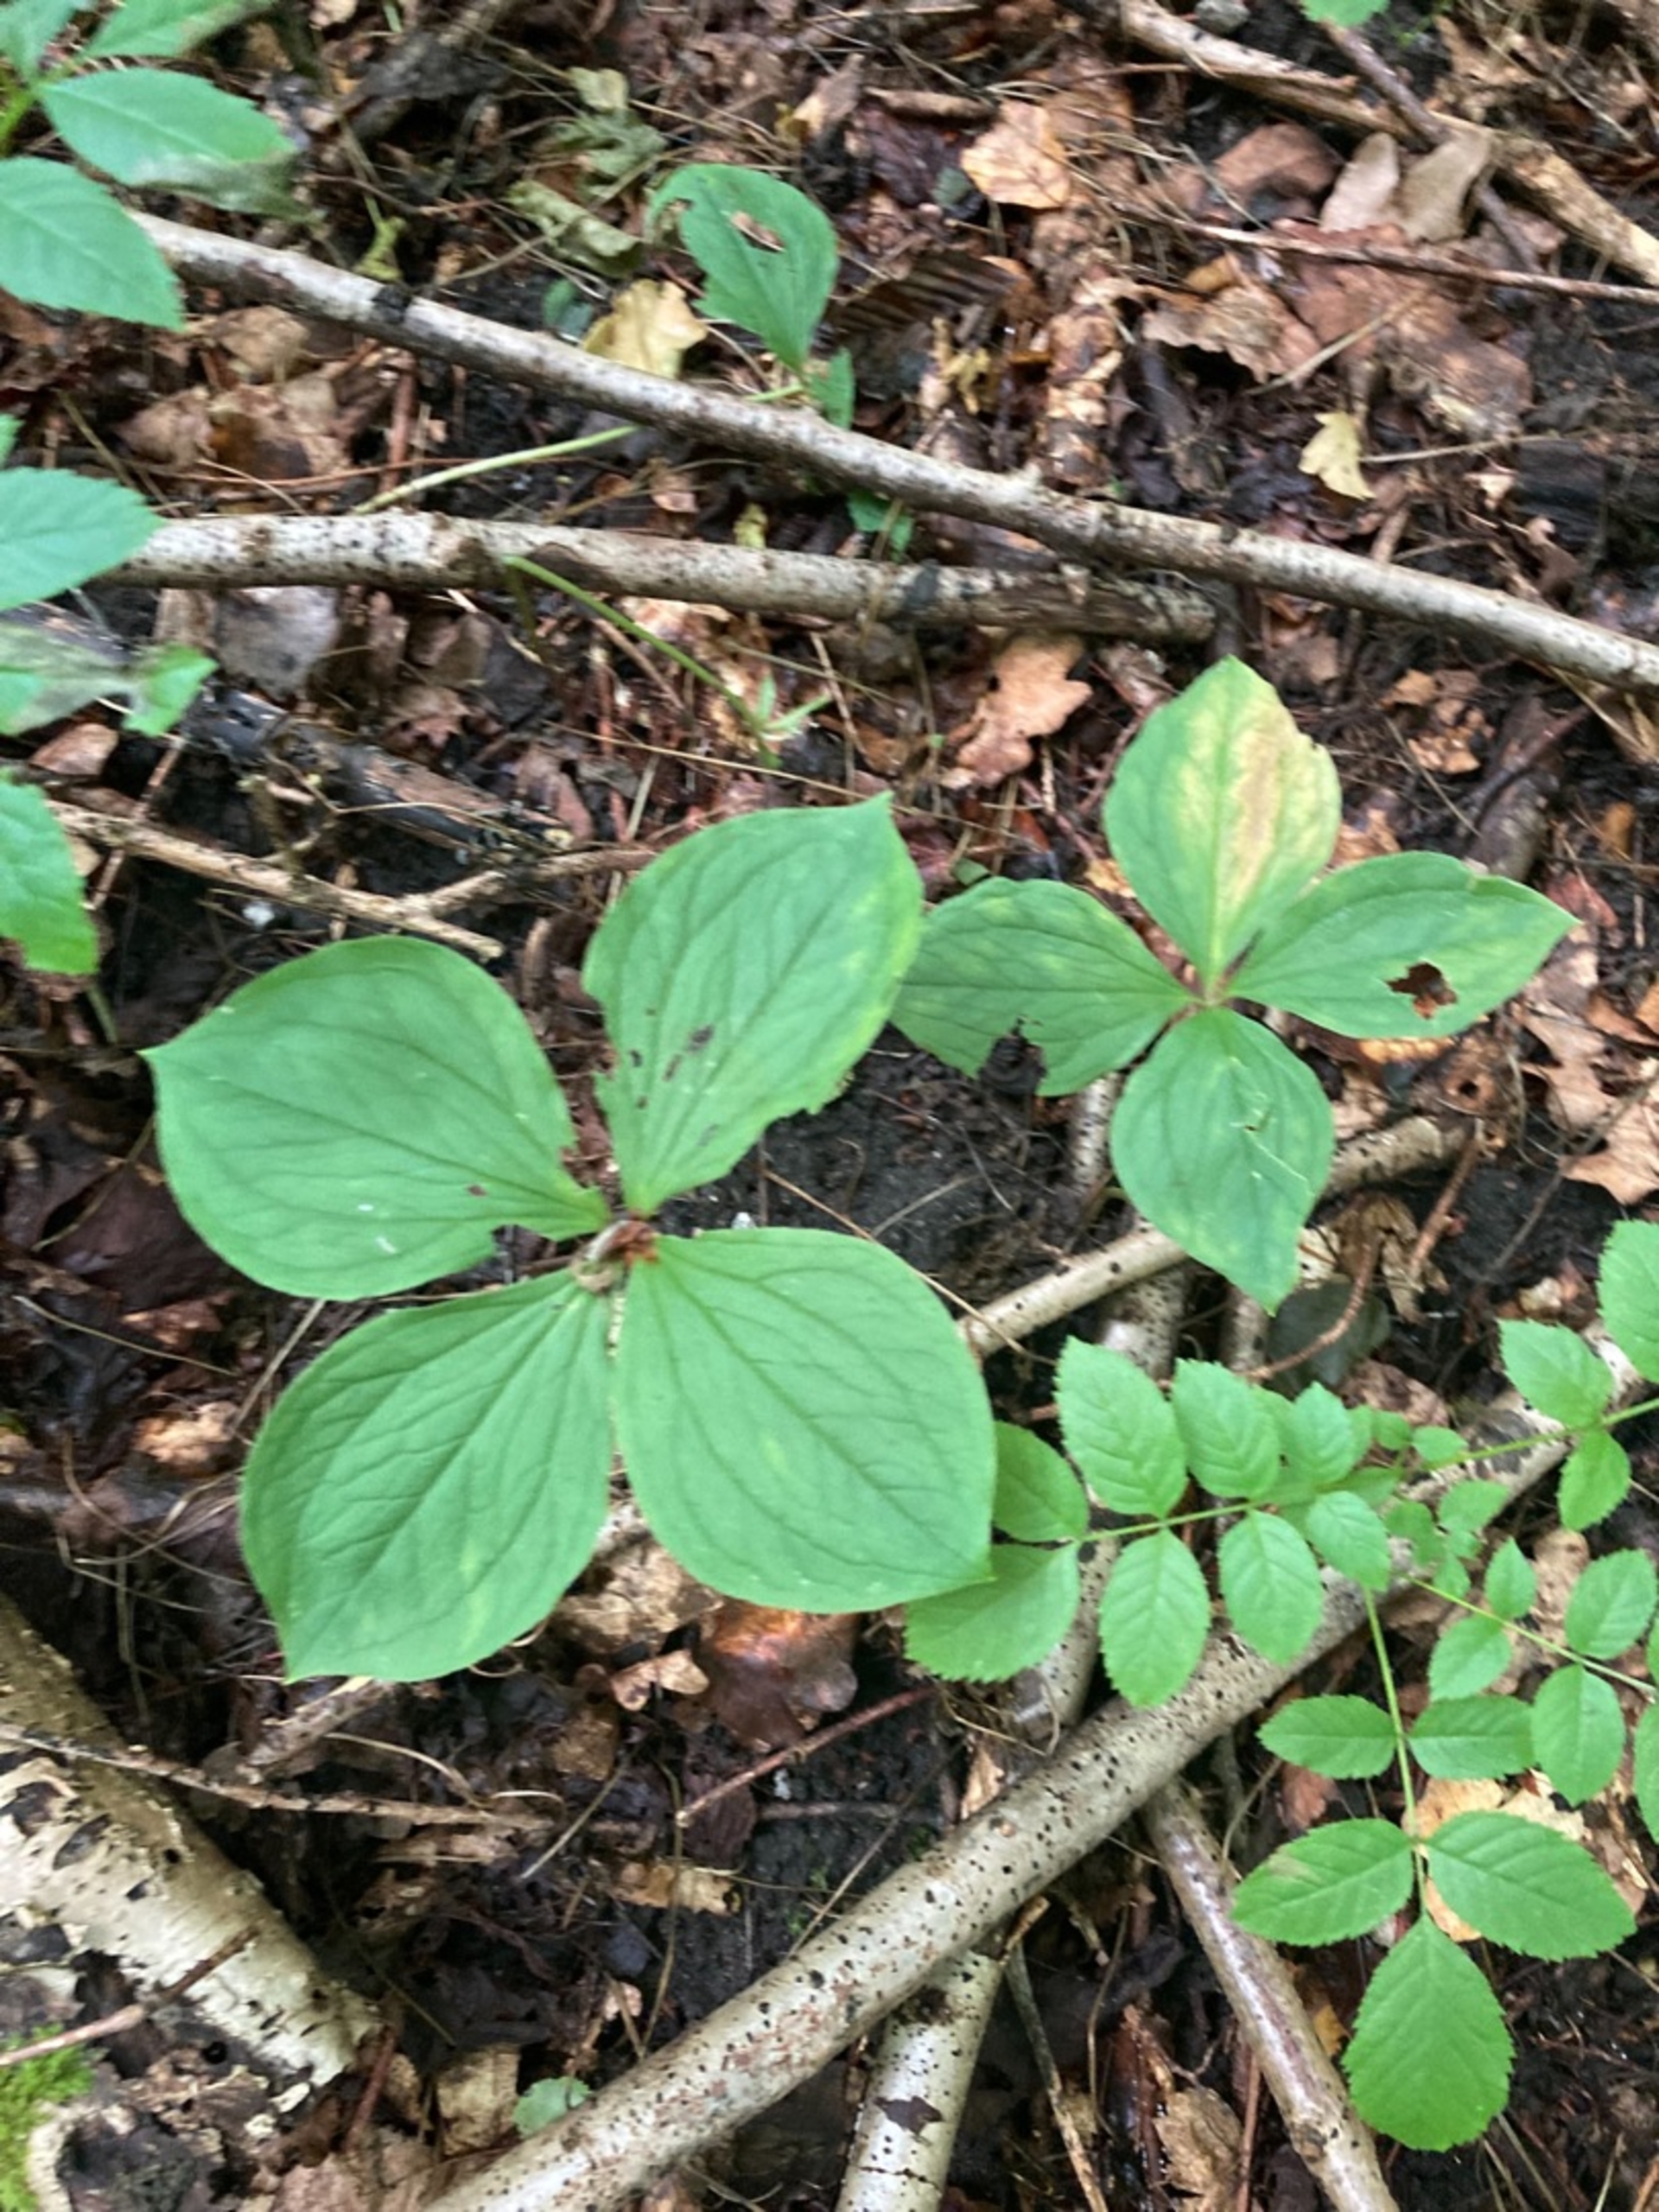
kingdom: Plantae
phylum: Tracheophyta
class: Liliopsida
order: Liliales
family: Melanthiaceae
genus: Paris
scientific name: Paris quadrifolia
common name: Firblad
